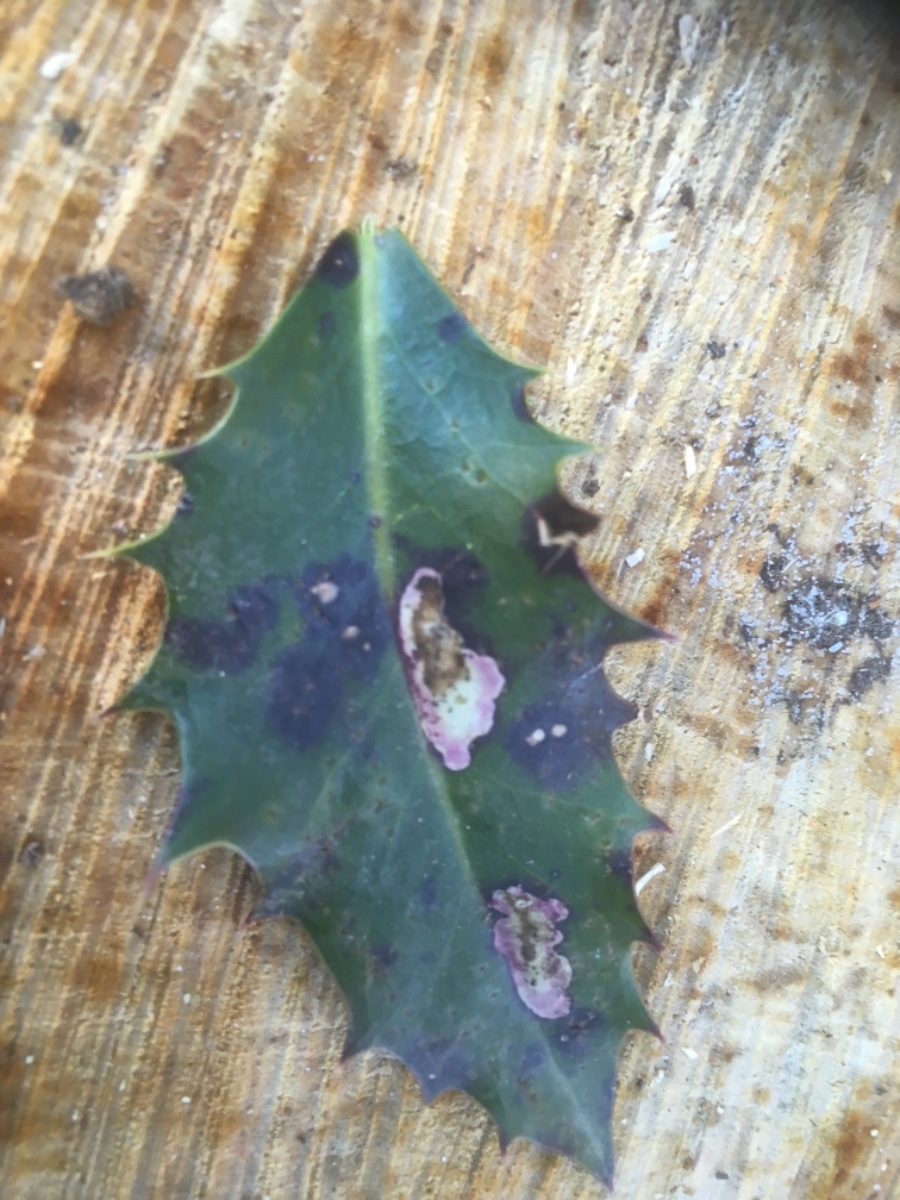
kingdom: Fungi
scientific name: Fungi
